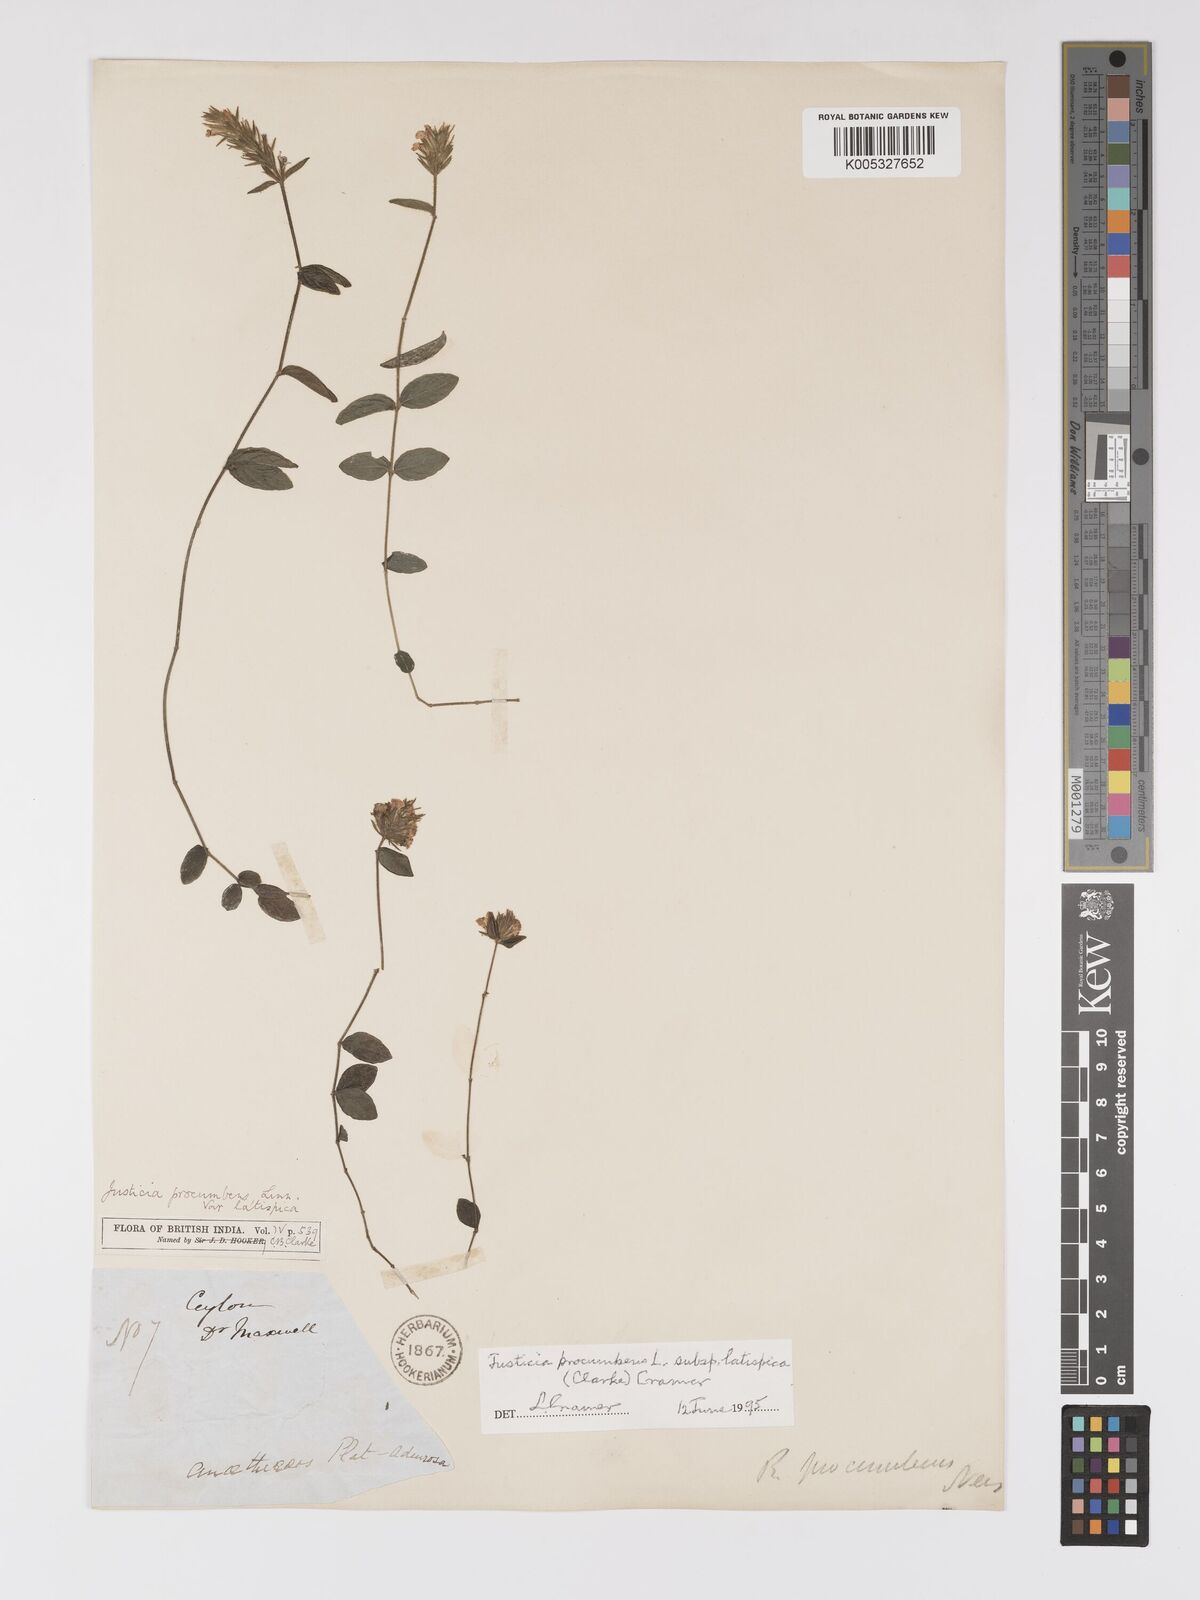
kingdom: Plantae
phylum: Tracheophyta
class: Magnoliopsida
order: Lamiales
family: Acanthaceae
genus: Rostellularia
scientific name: Rostellularia latispica
